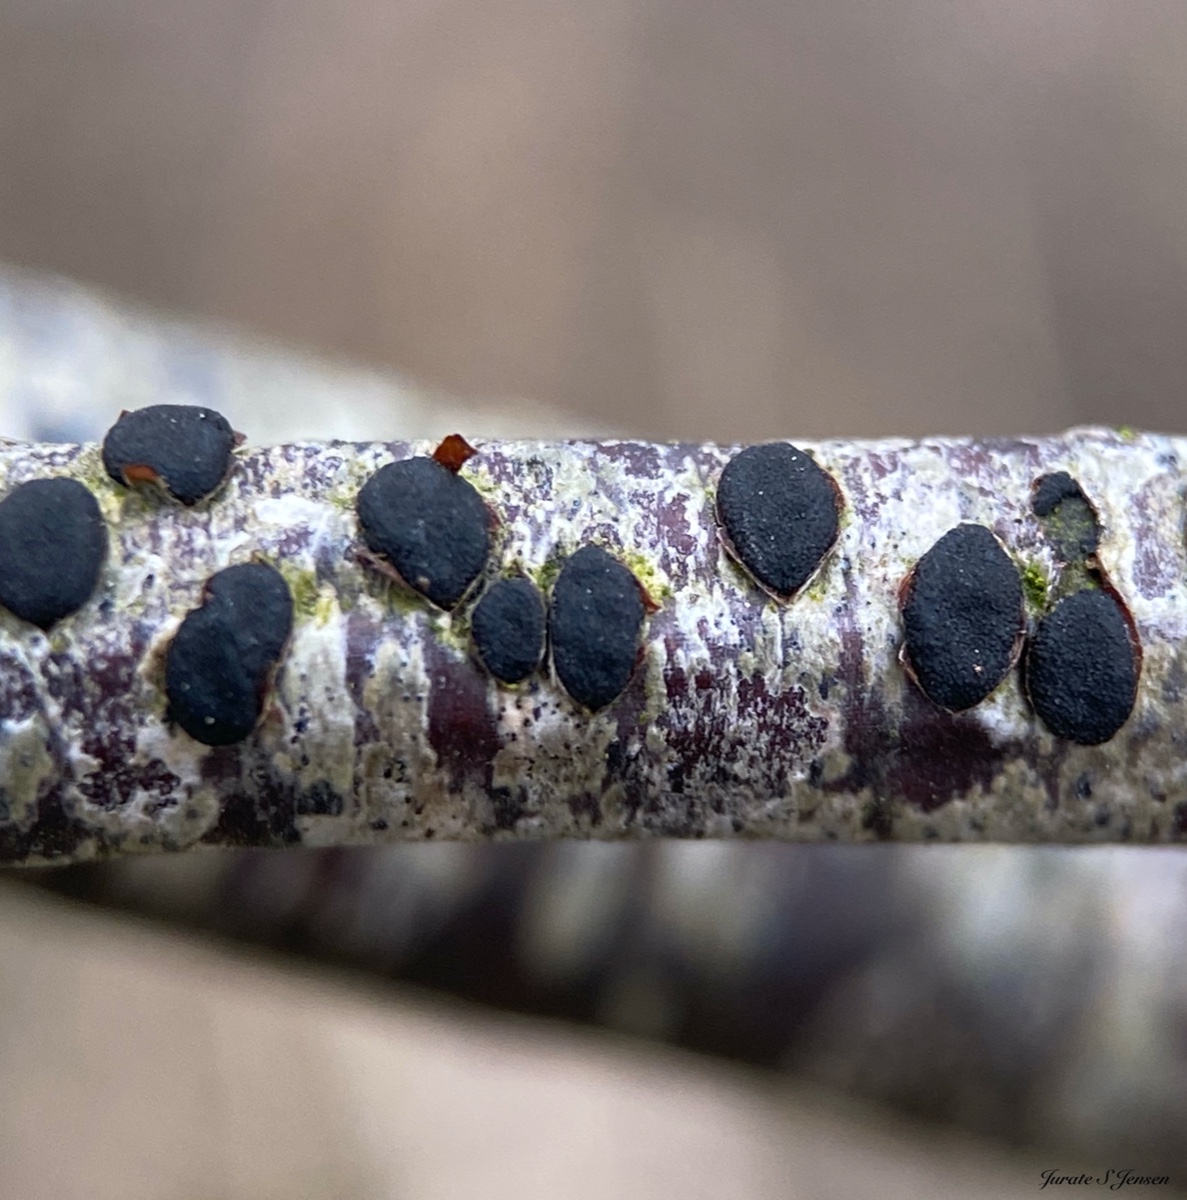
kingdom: Fungi
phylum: Ascomycota
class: Dothideomycetes
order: Botryosphaeriales
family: Botryosphaeriaceae
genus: Dothiora
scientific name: Dothiora ribesia
